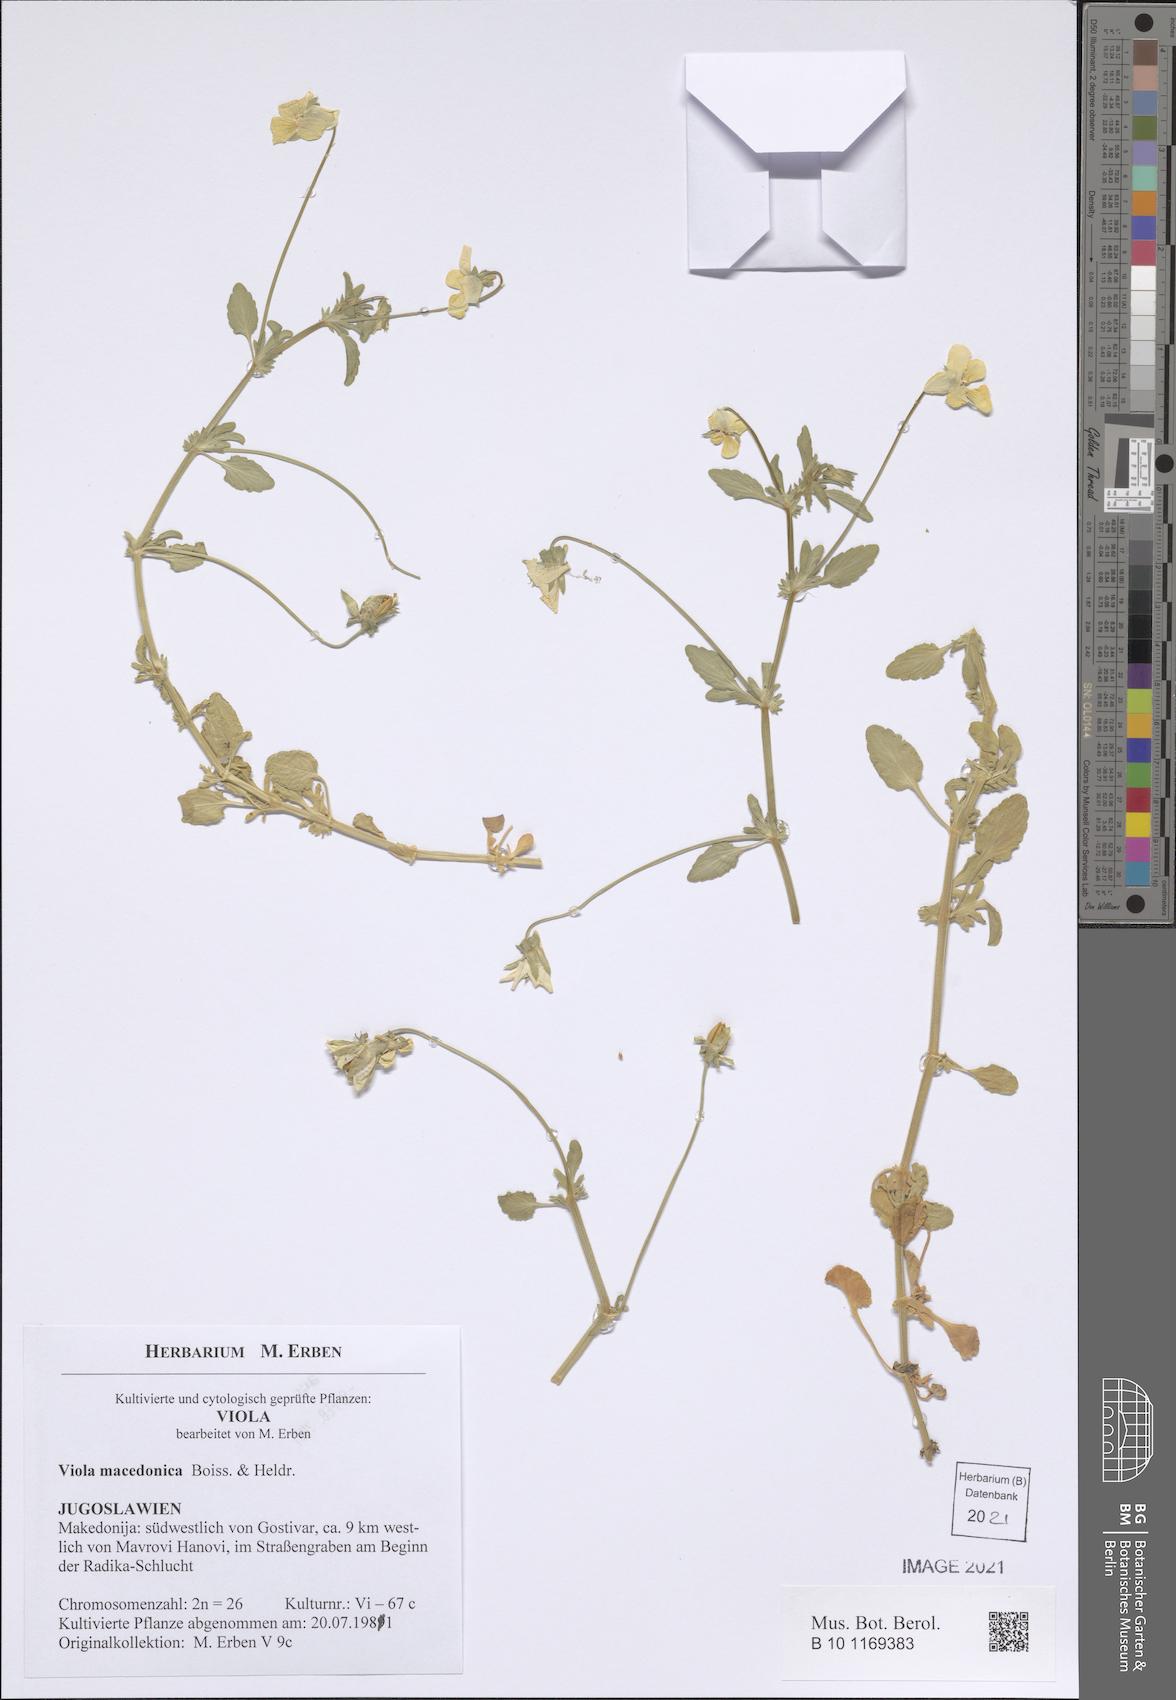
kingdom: Plantae
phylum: Tracheophyta
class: Magnoliopsida
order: Malpighiales
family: Violaceae
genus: Viola
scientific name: Viola tricolor
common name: Pansy
